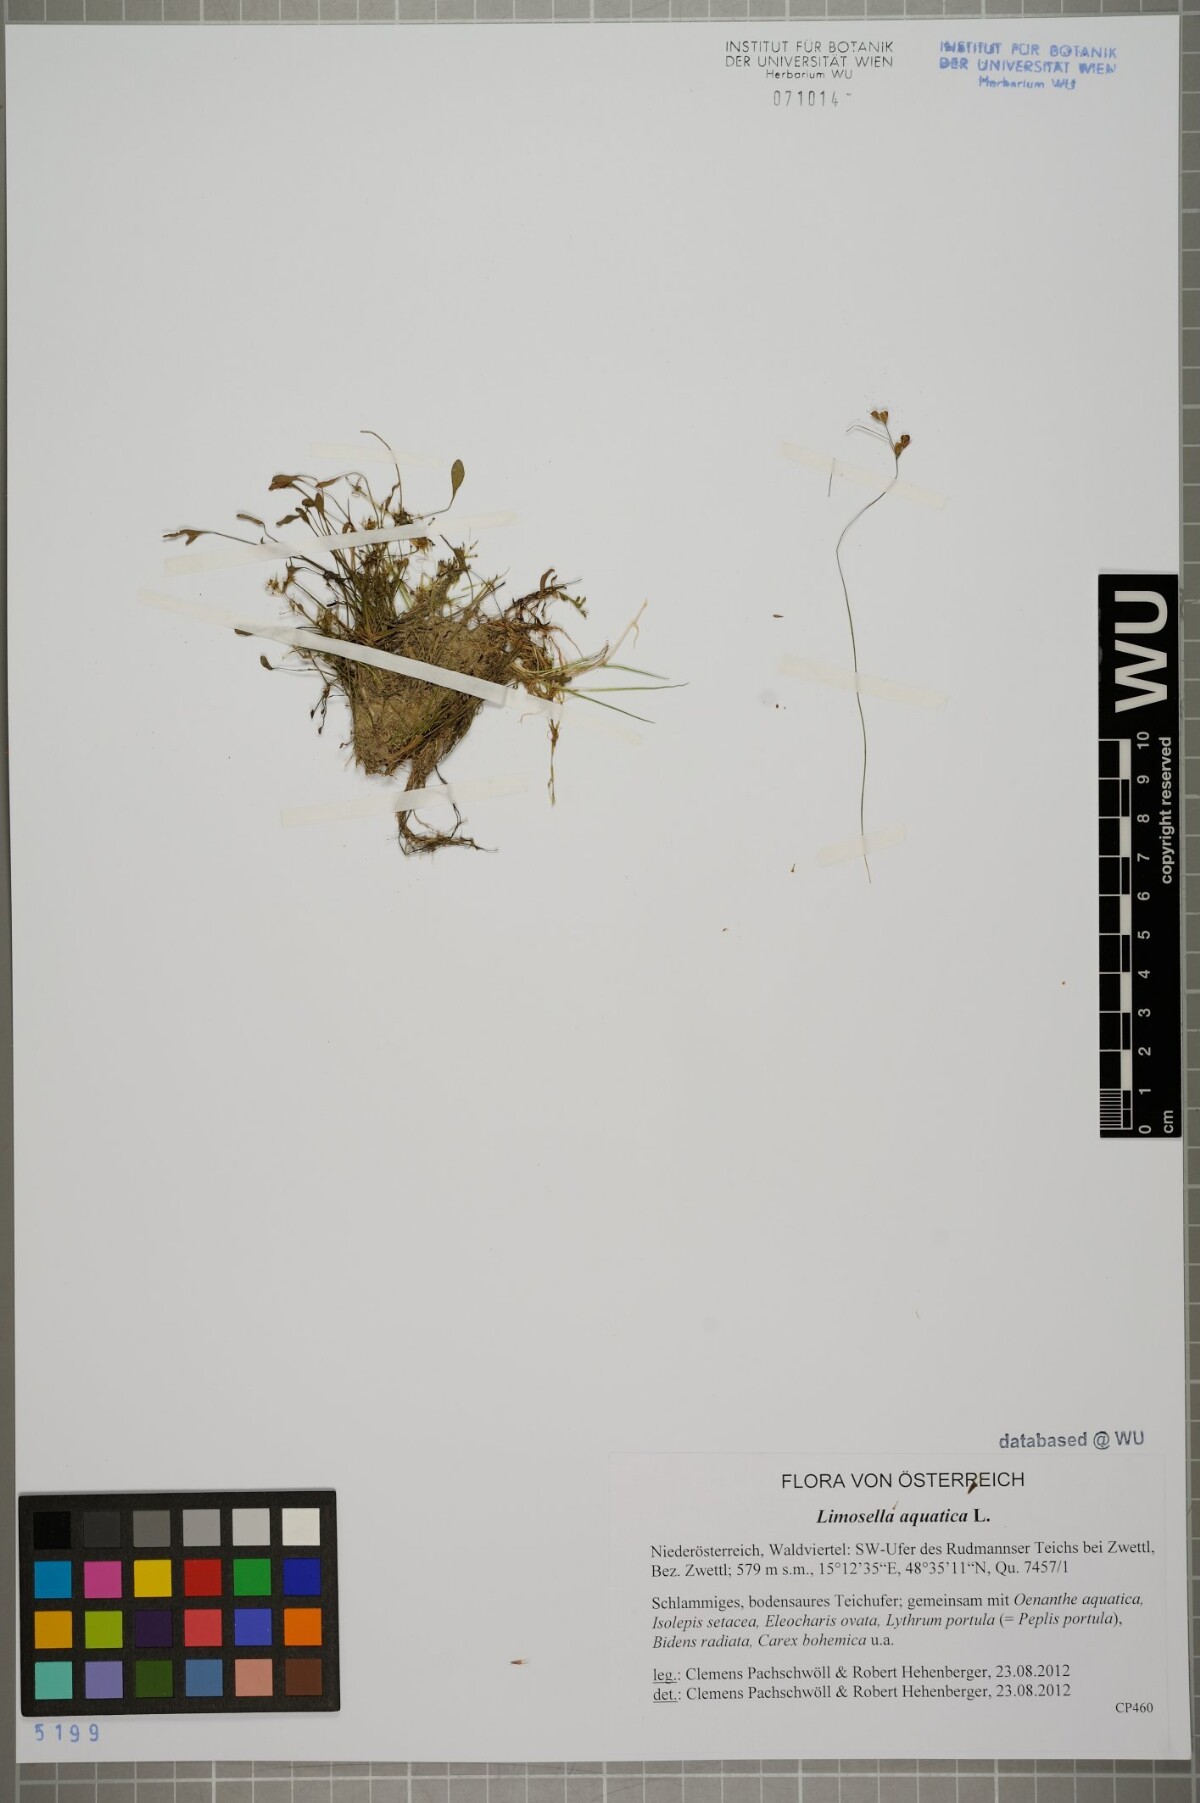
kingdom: Plantae
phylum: Tracheophyta
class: Magnoliopsida
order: Lamiales
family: Scrophulariaceae
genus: Limosella
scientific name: Limosella aquatica
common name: Mudwort
